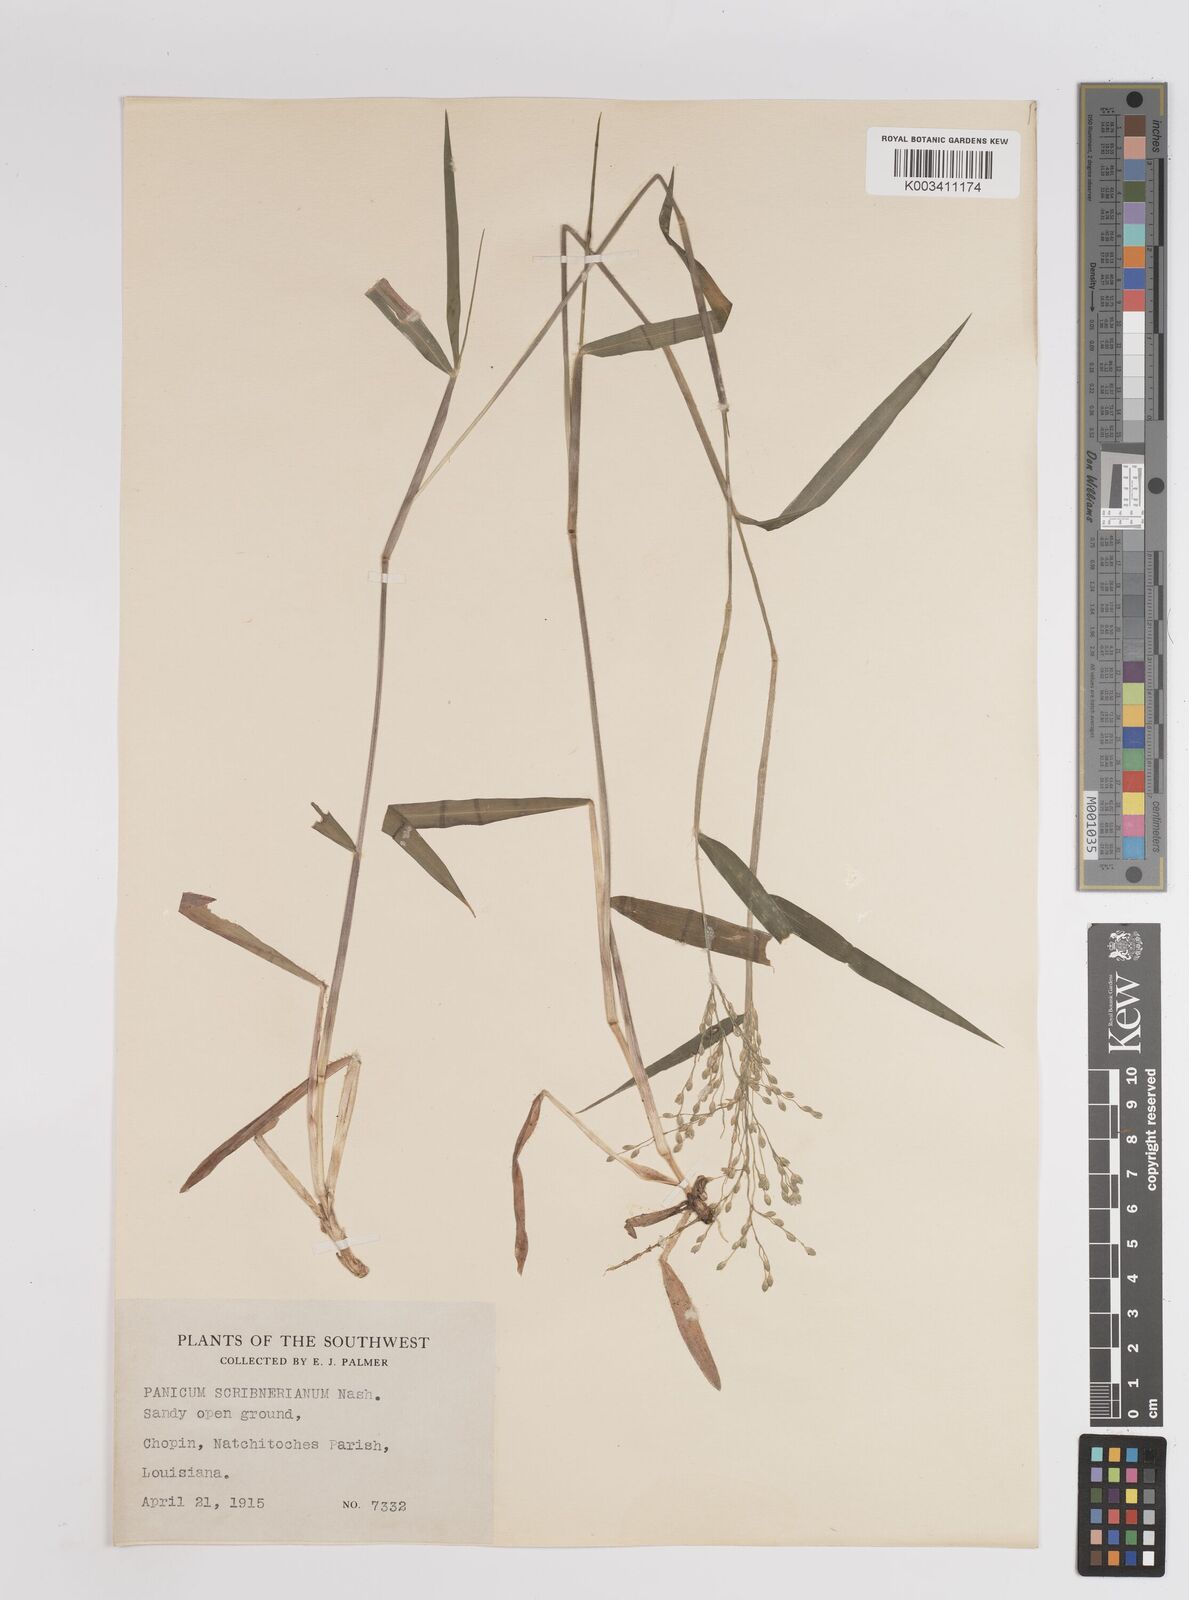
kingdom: Plantae
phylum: Tracheophyta
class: Liliopsida
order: Poales
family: Poaceae
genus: Dichanthelium
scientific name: Dichanthelium scribnerianum
